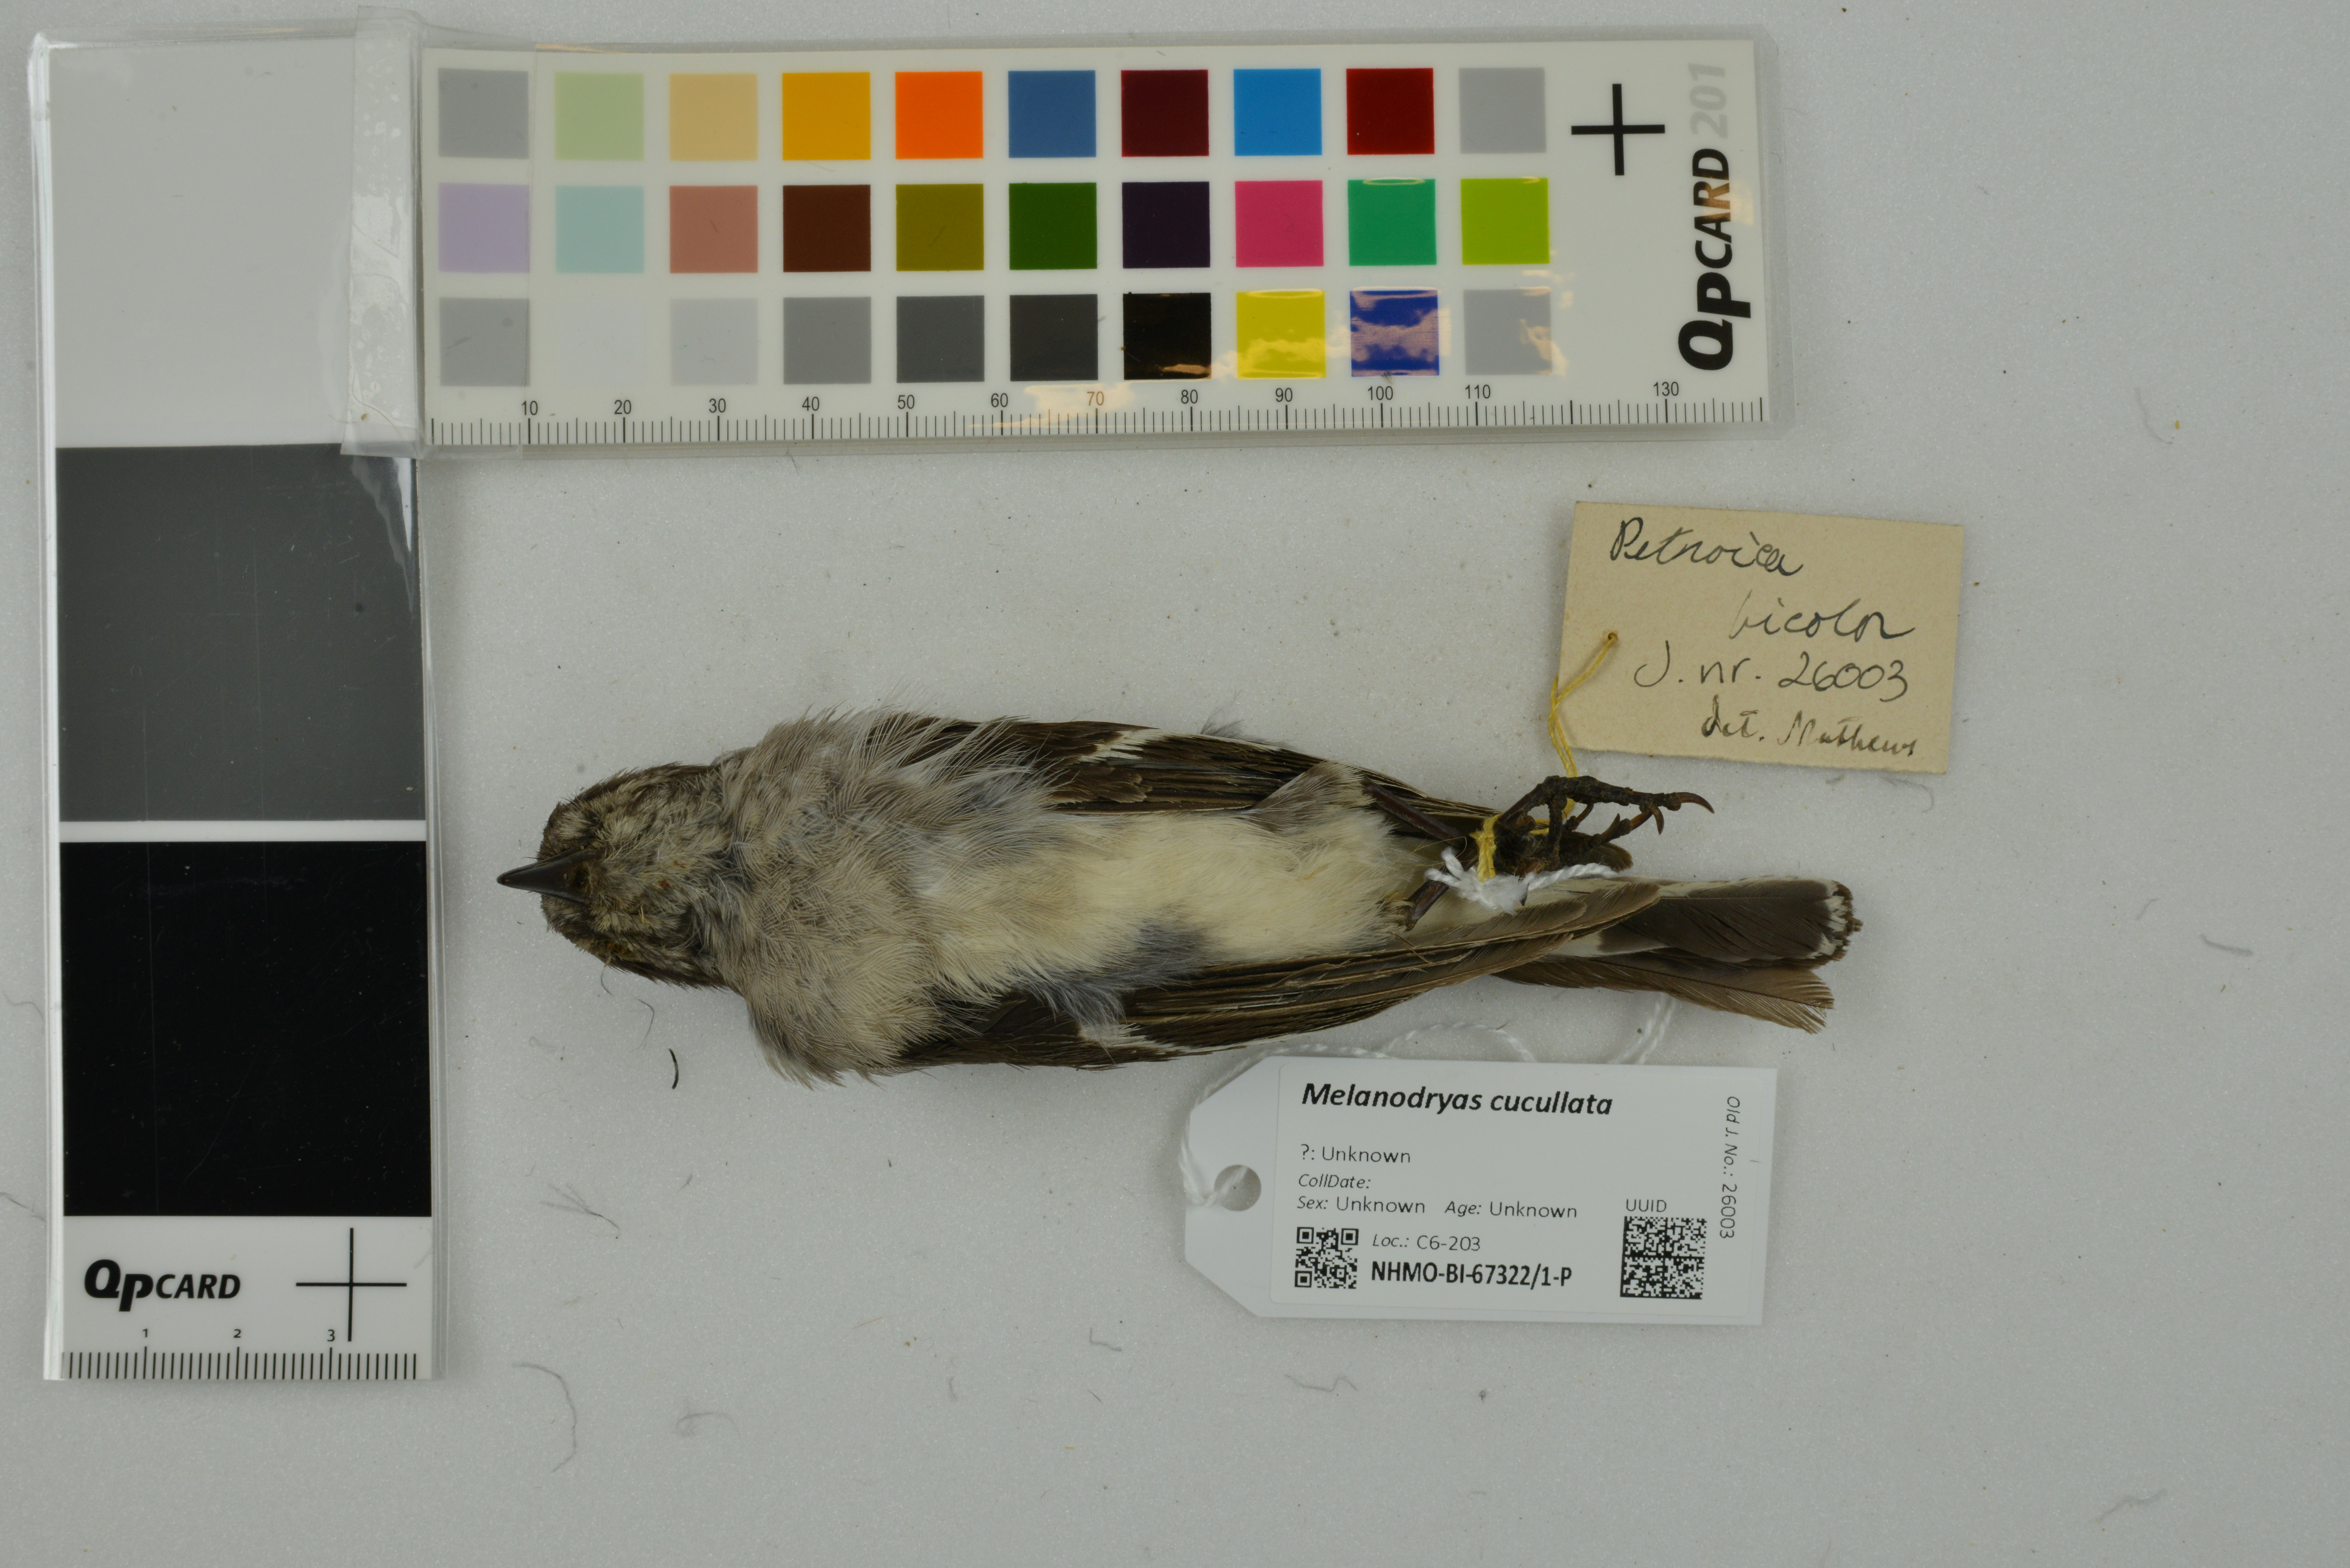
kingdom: Animalia
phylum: Chordata
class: Aves
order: Passeriformes
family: Petroicidae
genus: Melanodryas
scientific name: Melanodryas cucullata
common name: Hooded robin
